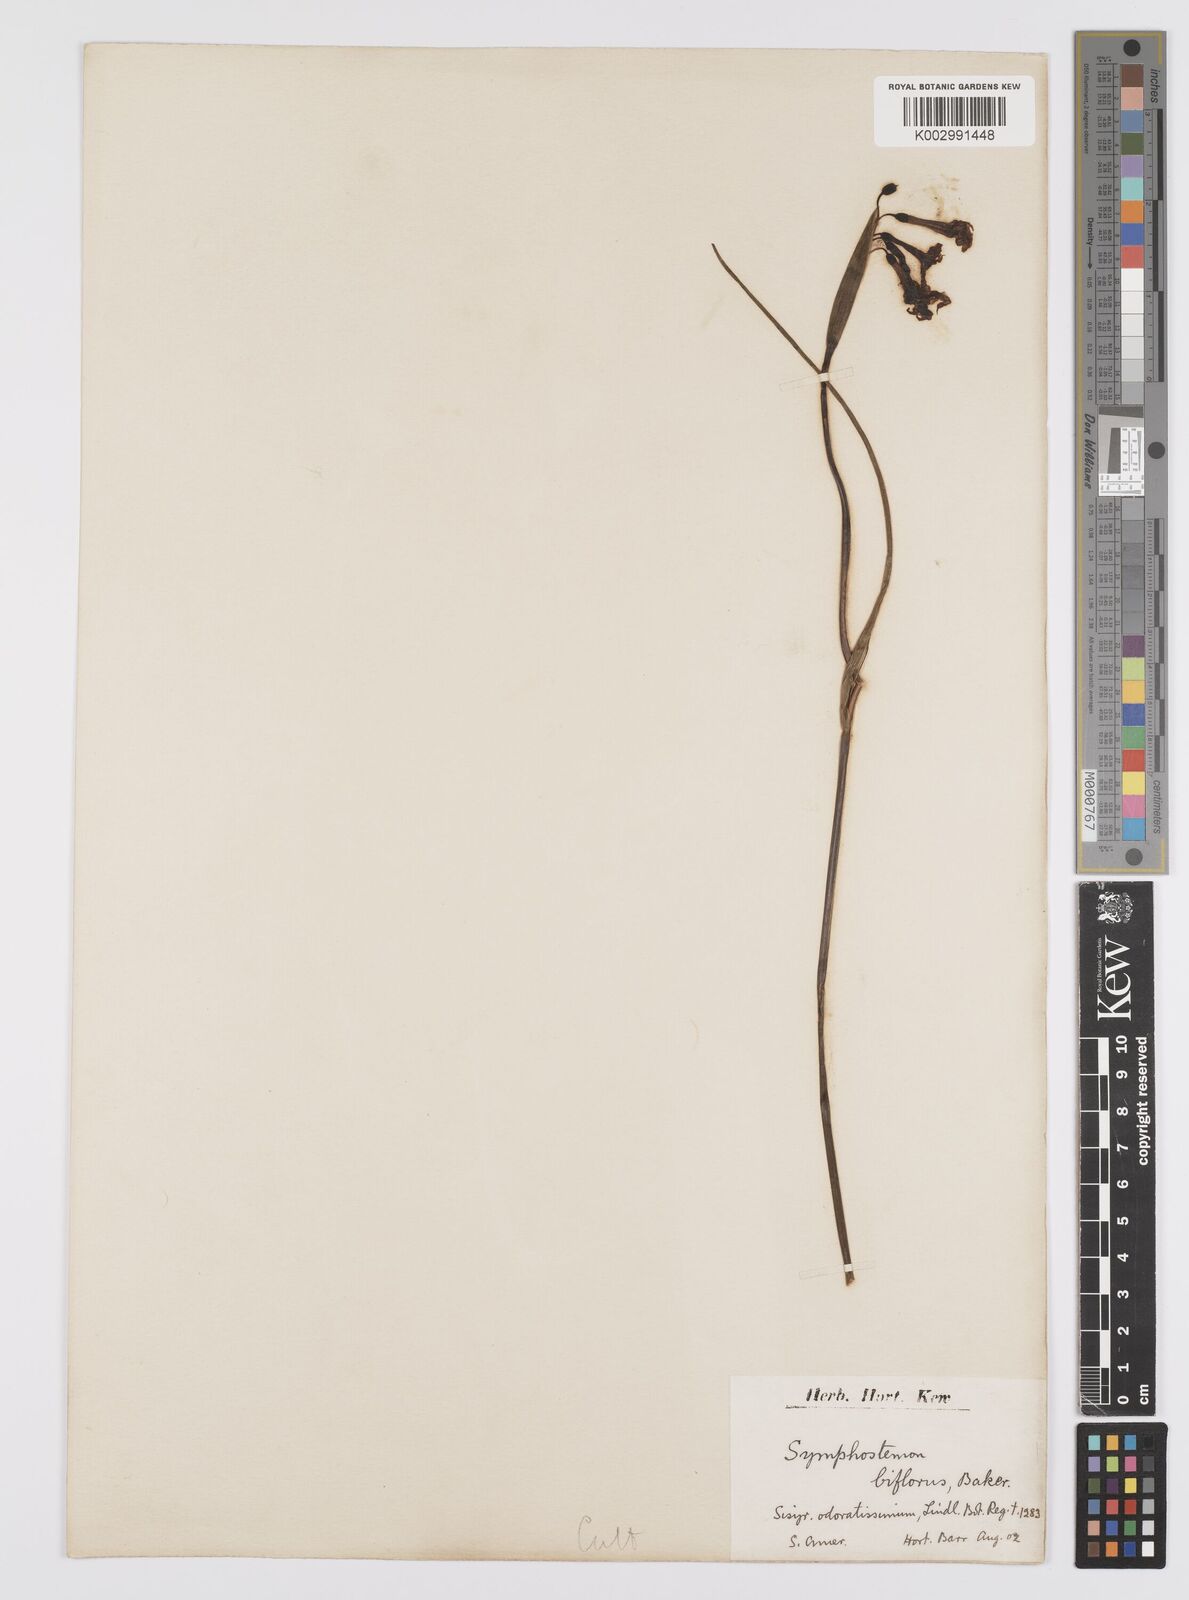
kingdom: Plantae
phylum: Tracheophyta
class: Liliopsida
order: Asparagales
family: Iridaceae
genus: Olsynium
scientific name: Olsynium biflorum
